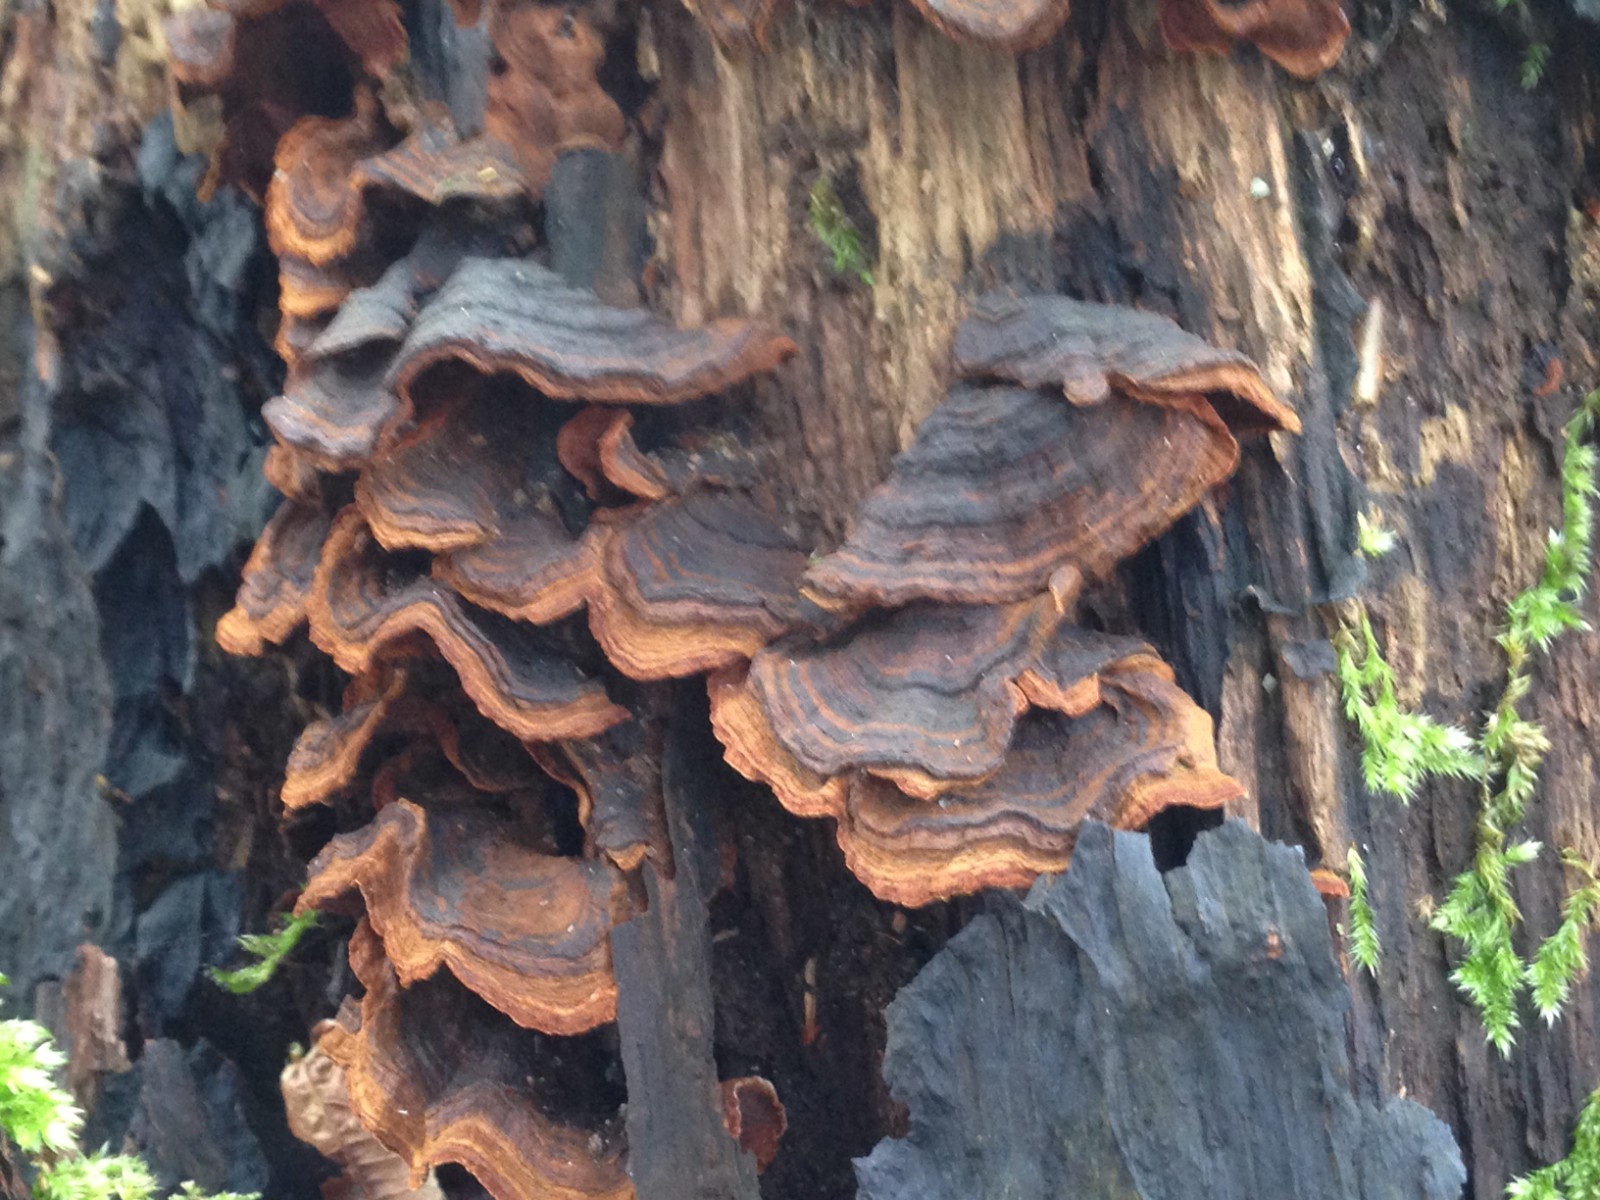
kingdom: Fungi
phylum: Basidiomycota
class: Agaricomycetes
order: Hymenochaetales
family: Hymenochaetaceae
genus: Hymenochaete
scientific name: Hymenochaete rubiginosa
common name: stiv ruslædersvamp
